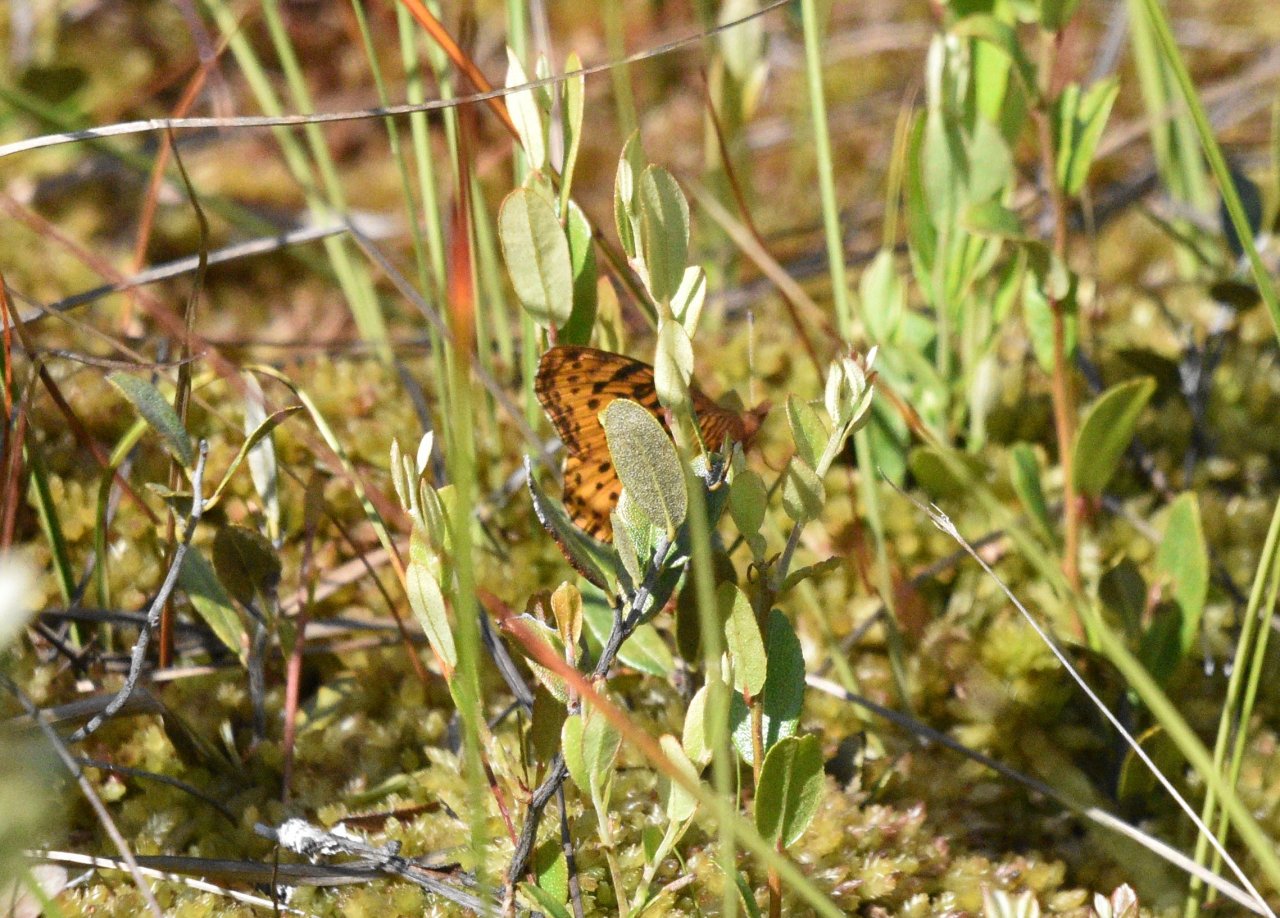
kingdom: Animalia
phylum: Arthropoda
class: Insecta
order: Lepidoptera
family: Nymphalidae
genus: Clossiana
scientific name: Clossiana toddi
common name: Meadow Fritillary
